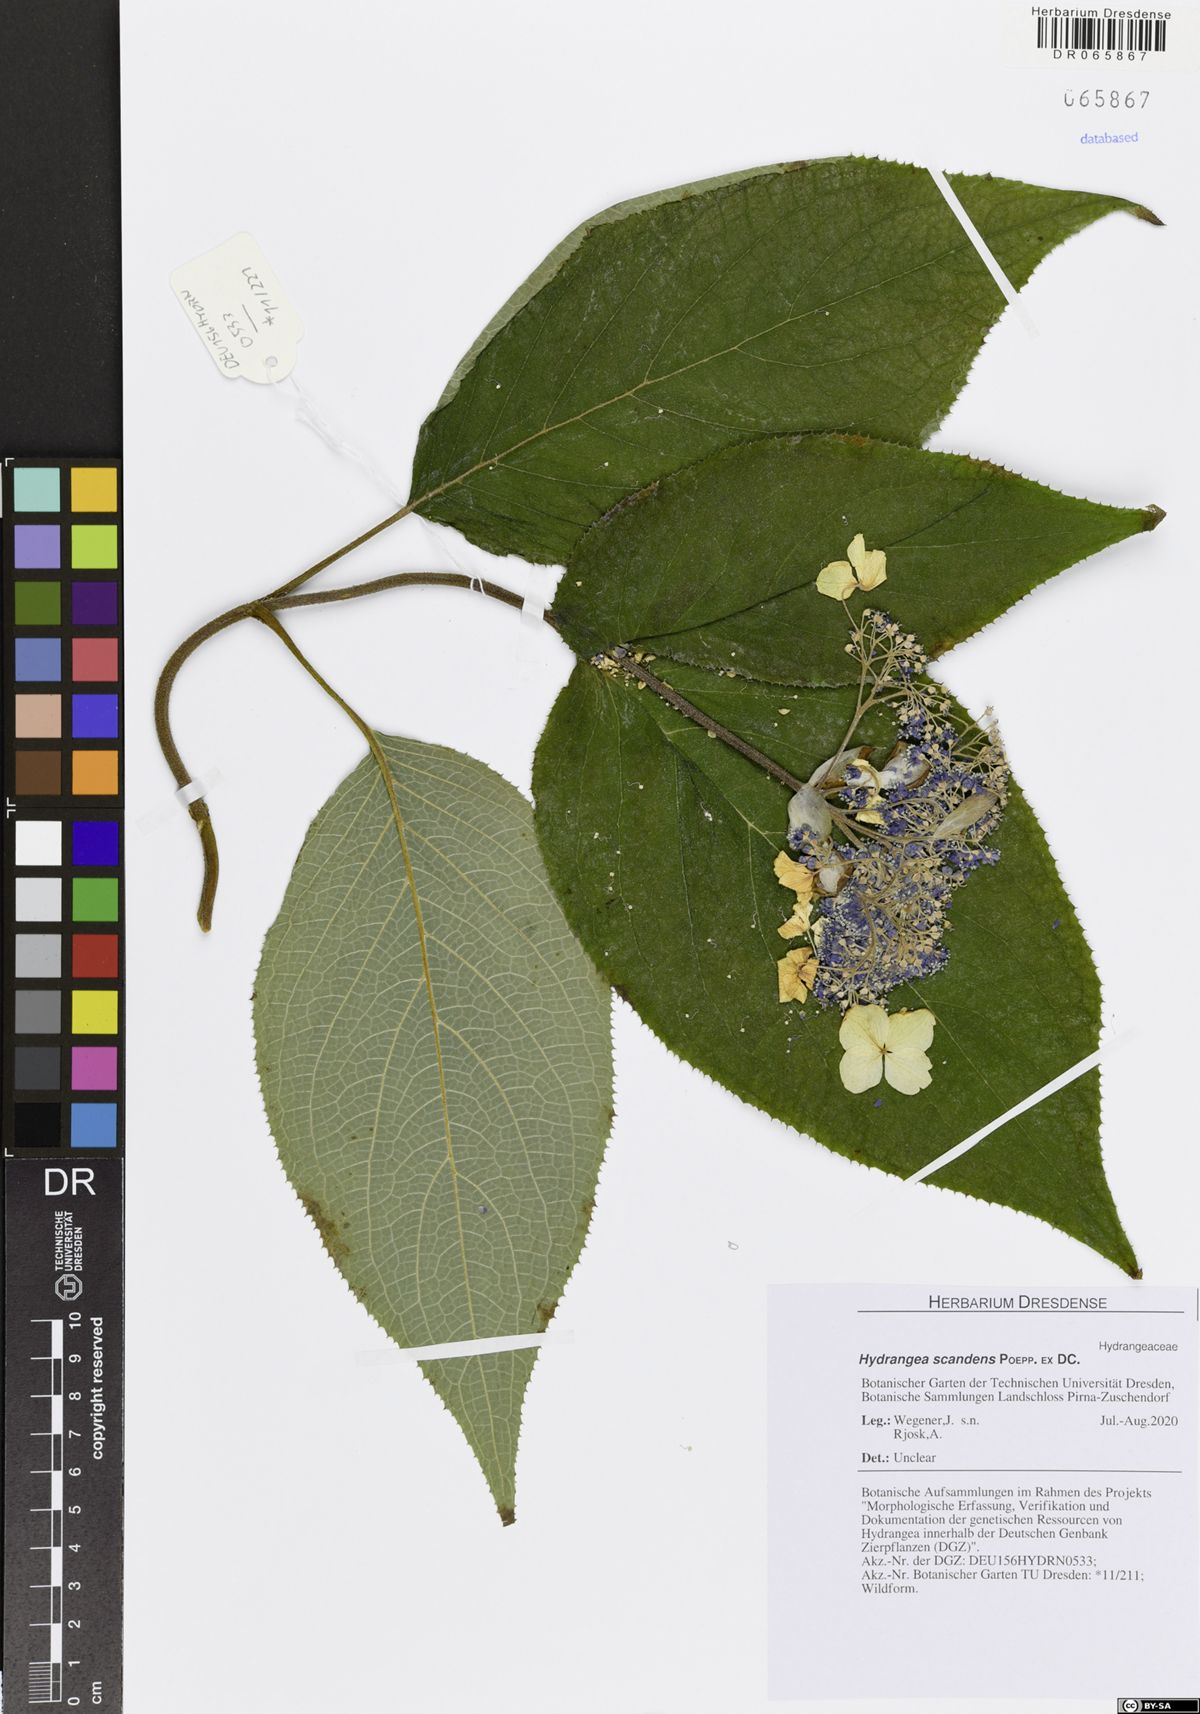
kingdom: Plantae
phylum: Tracheophyta
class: Magnoliopsida
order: Cornales
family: Hydrangeaceae
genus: Hydrangea
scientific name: Hydrangea serratifolia
